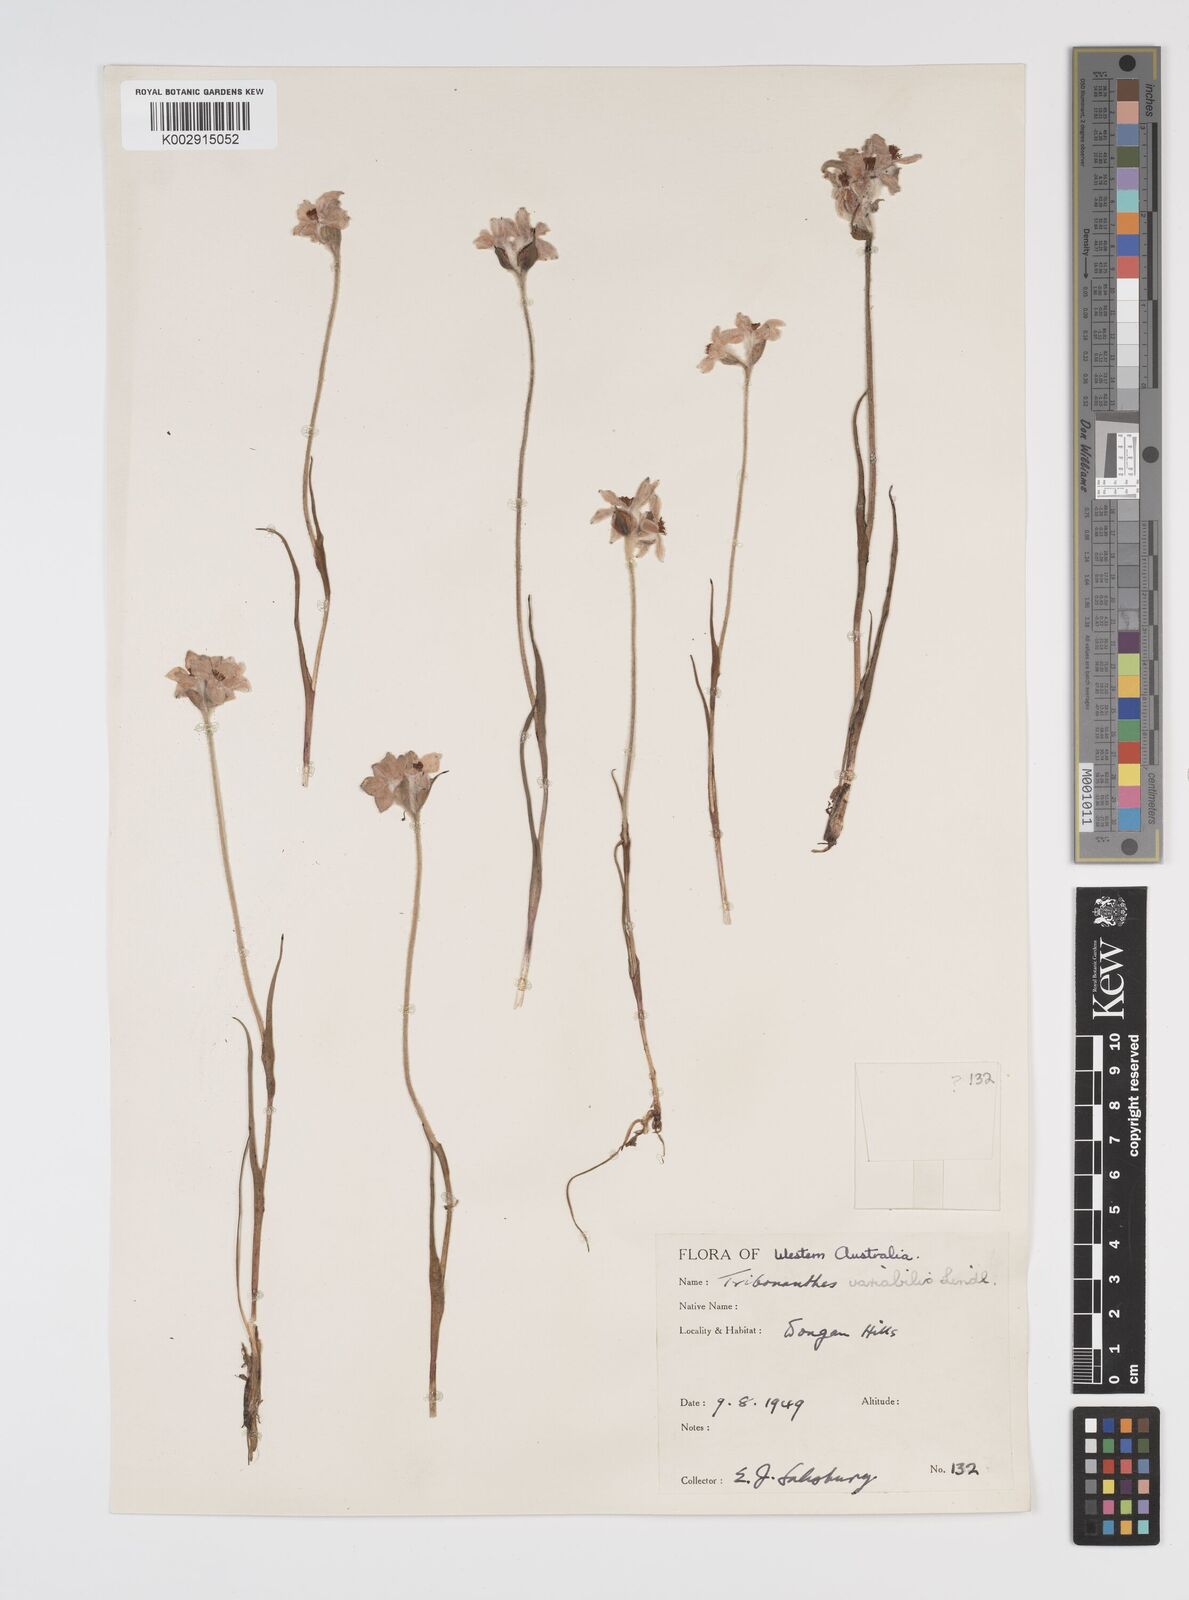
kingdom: Plantae
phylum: Tracheophyta
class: Liliopsida
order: Commelinales
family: Haemodoraceae
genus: Tribonanthes
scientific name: Tribonanthes australis
